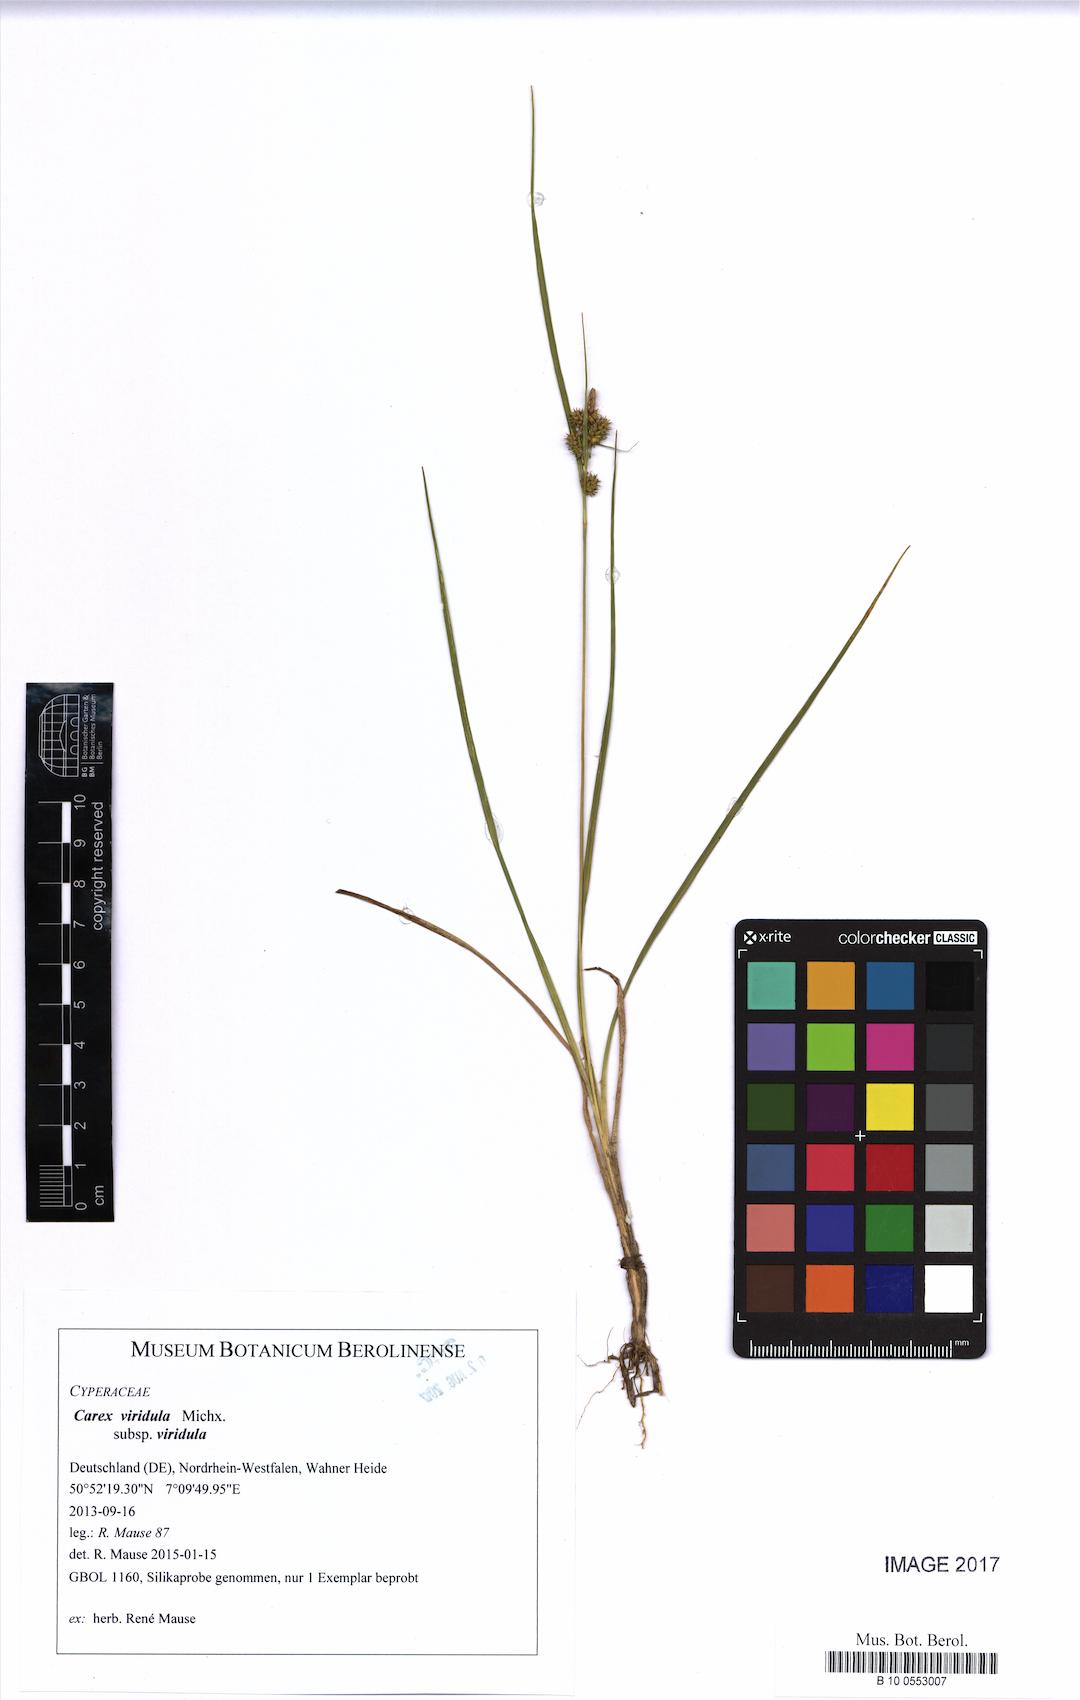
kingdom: Plantae
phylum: Tracheophyta
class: Liliopsida
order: Poales
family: Cyperaceae
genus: Carex
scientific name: Carex oederi
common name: Common & small-fruited yellow-sedge
